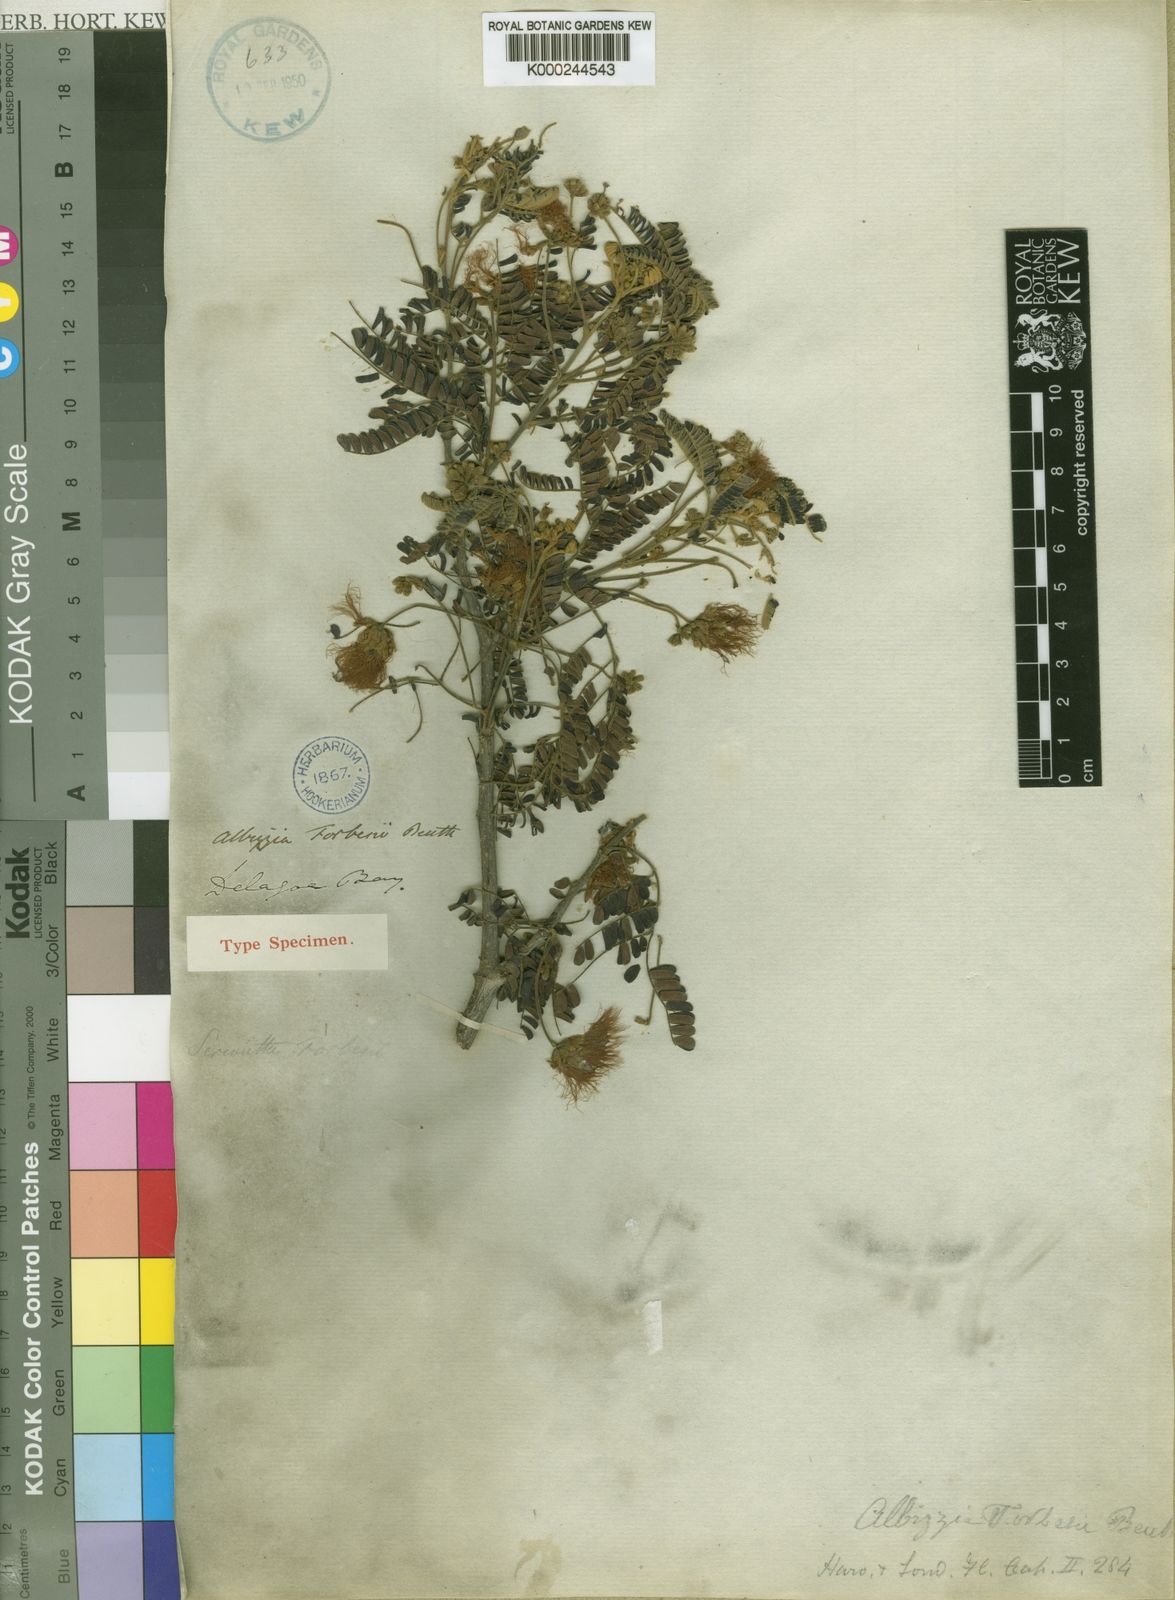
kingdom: Plantae
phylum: Tracheophyta
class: Magnoliopsida
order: Fabales
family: Fabaceae
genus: Albizia
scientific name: Albizia forbesii
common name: Broad-pod albizia
